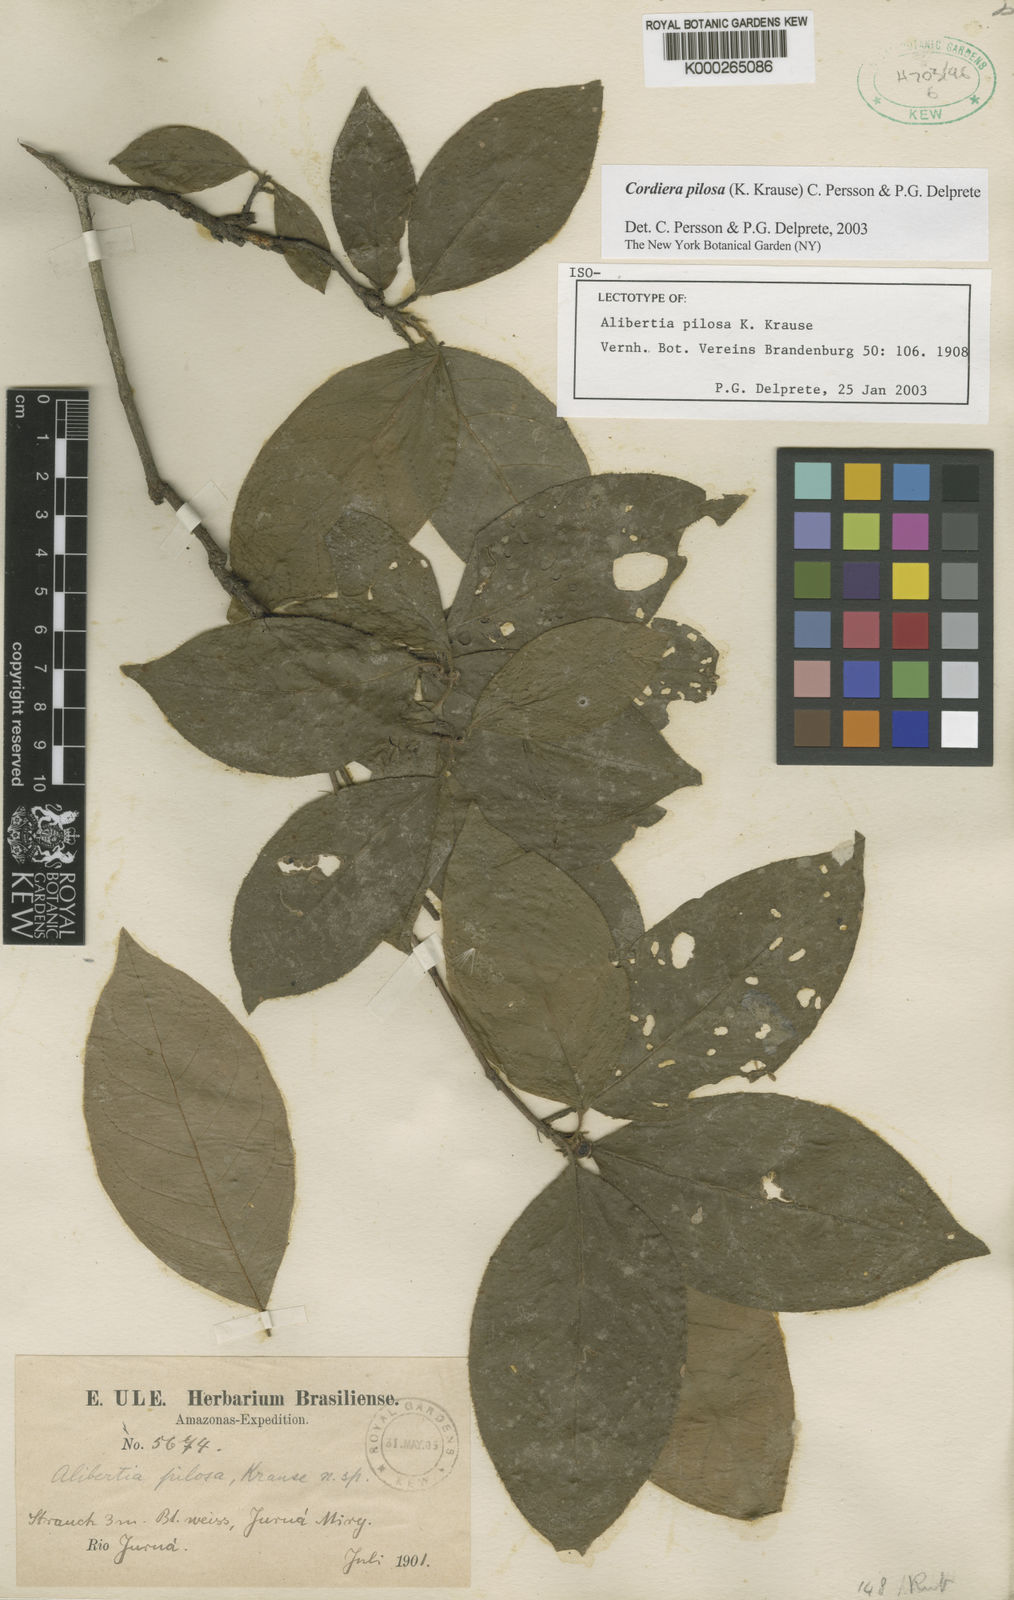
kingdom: Plantae
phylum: Tracheophyta
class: Magnoliopsida
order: Gentianales
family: Rubiaceae
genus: Cordiera
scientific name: Cordiera pilosa
